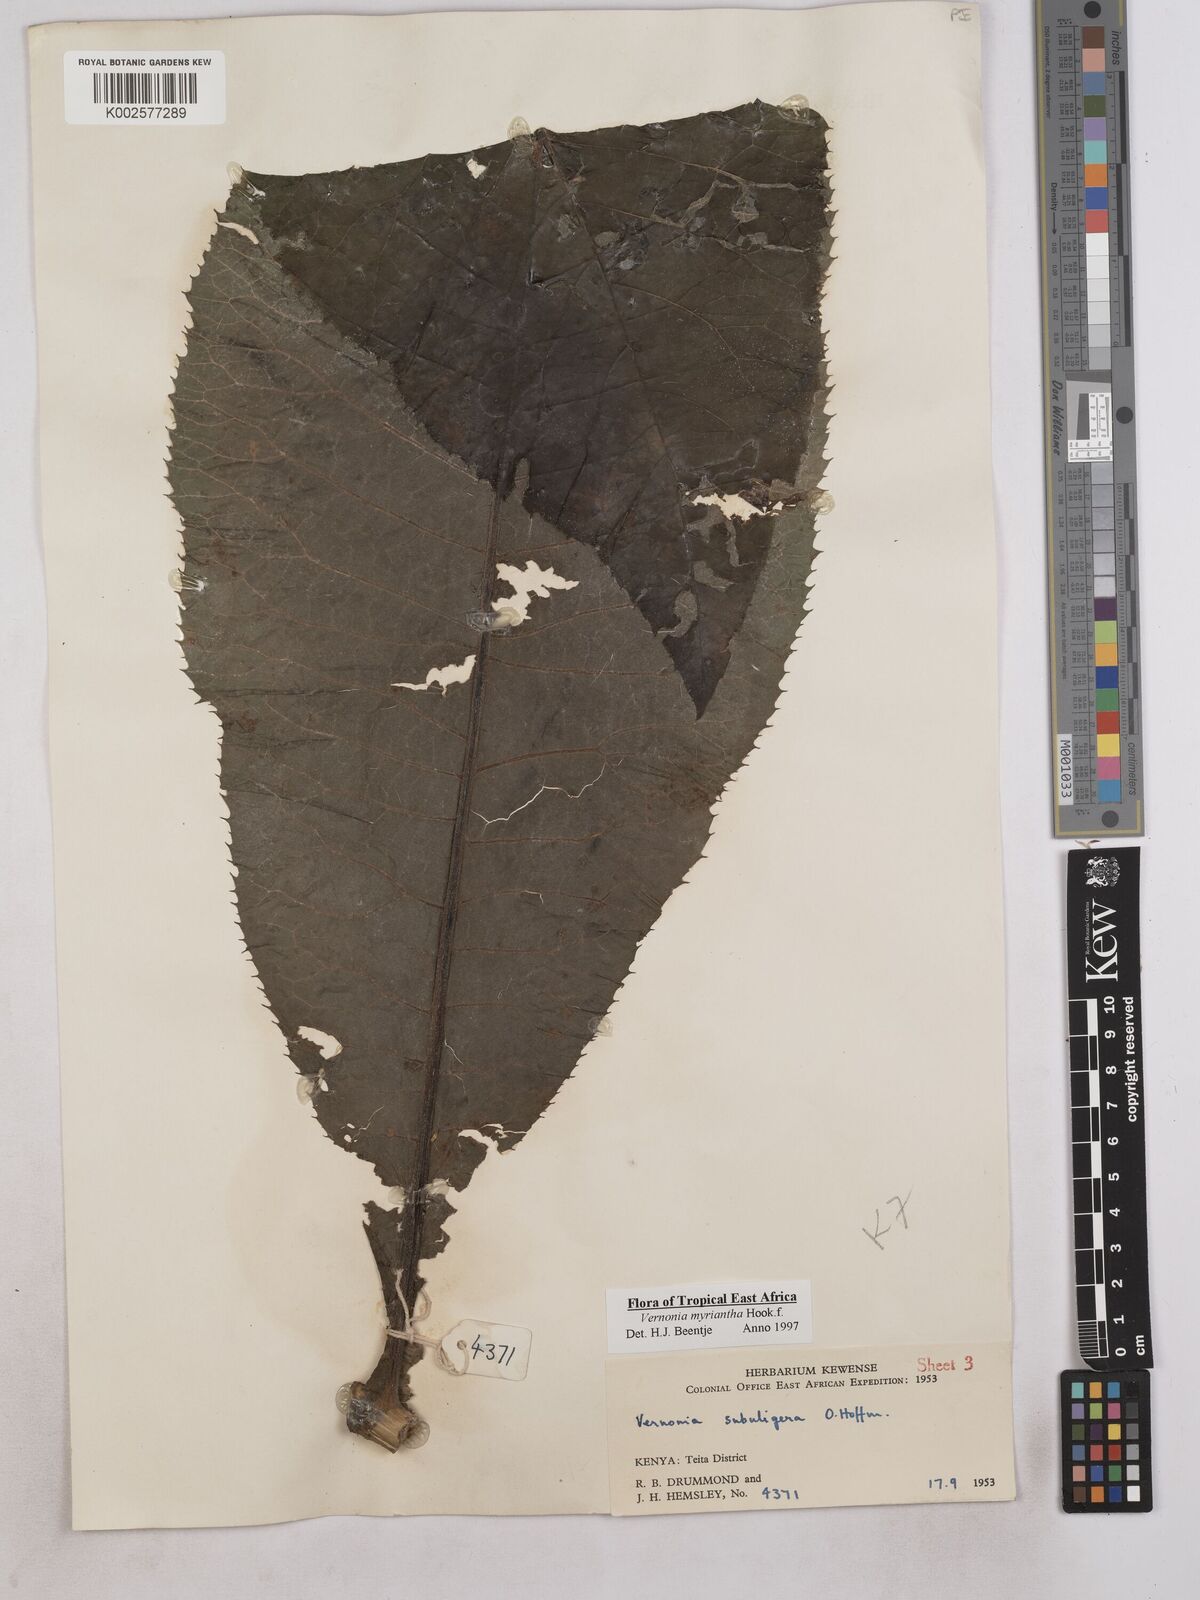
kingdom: Plantae
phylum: Tracheophyta
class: Magnoliopsida
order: Asterales
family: Asteraceae
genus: Gymnanthemum
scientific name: Gymnanthemum myrianthum
